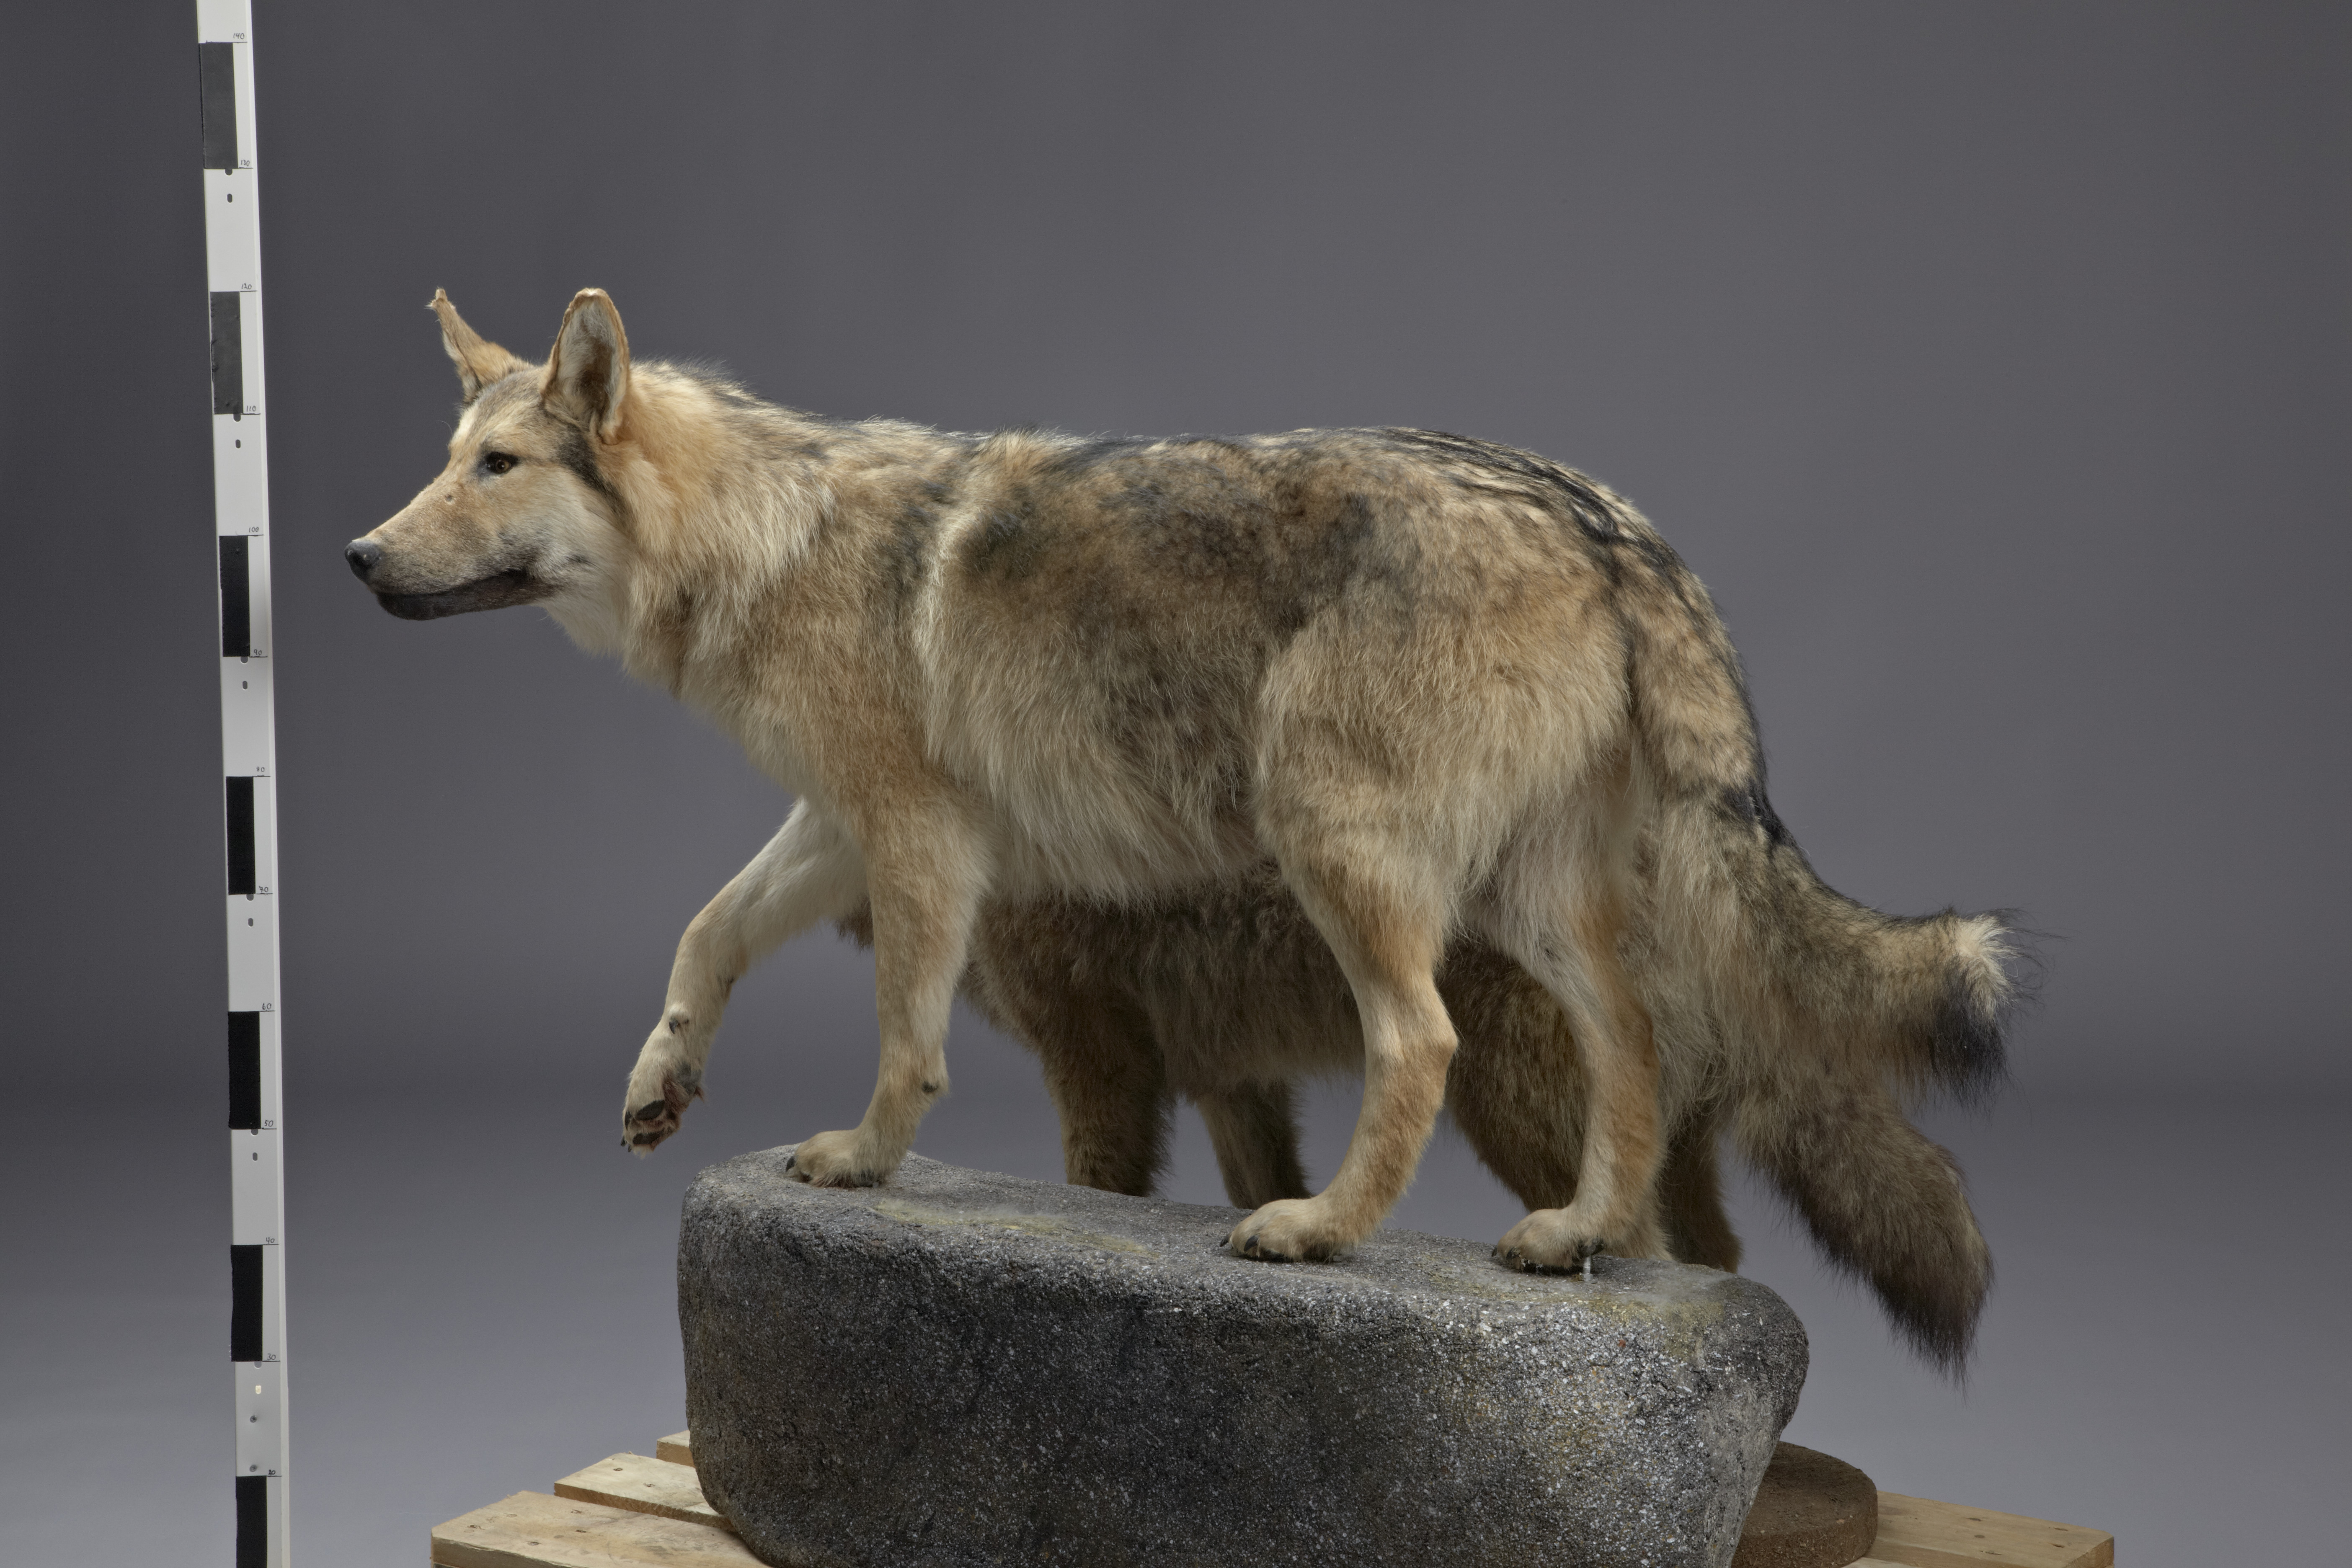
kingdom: Animalia
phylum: Chordata
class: Mammalia
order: Carnivora
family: Canidae
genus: Canis
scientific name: Canis
